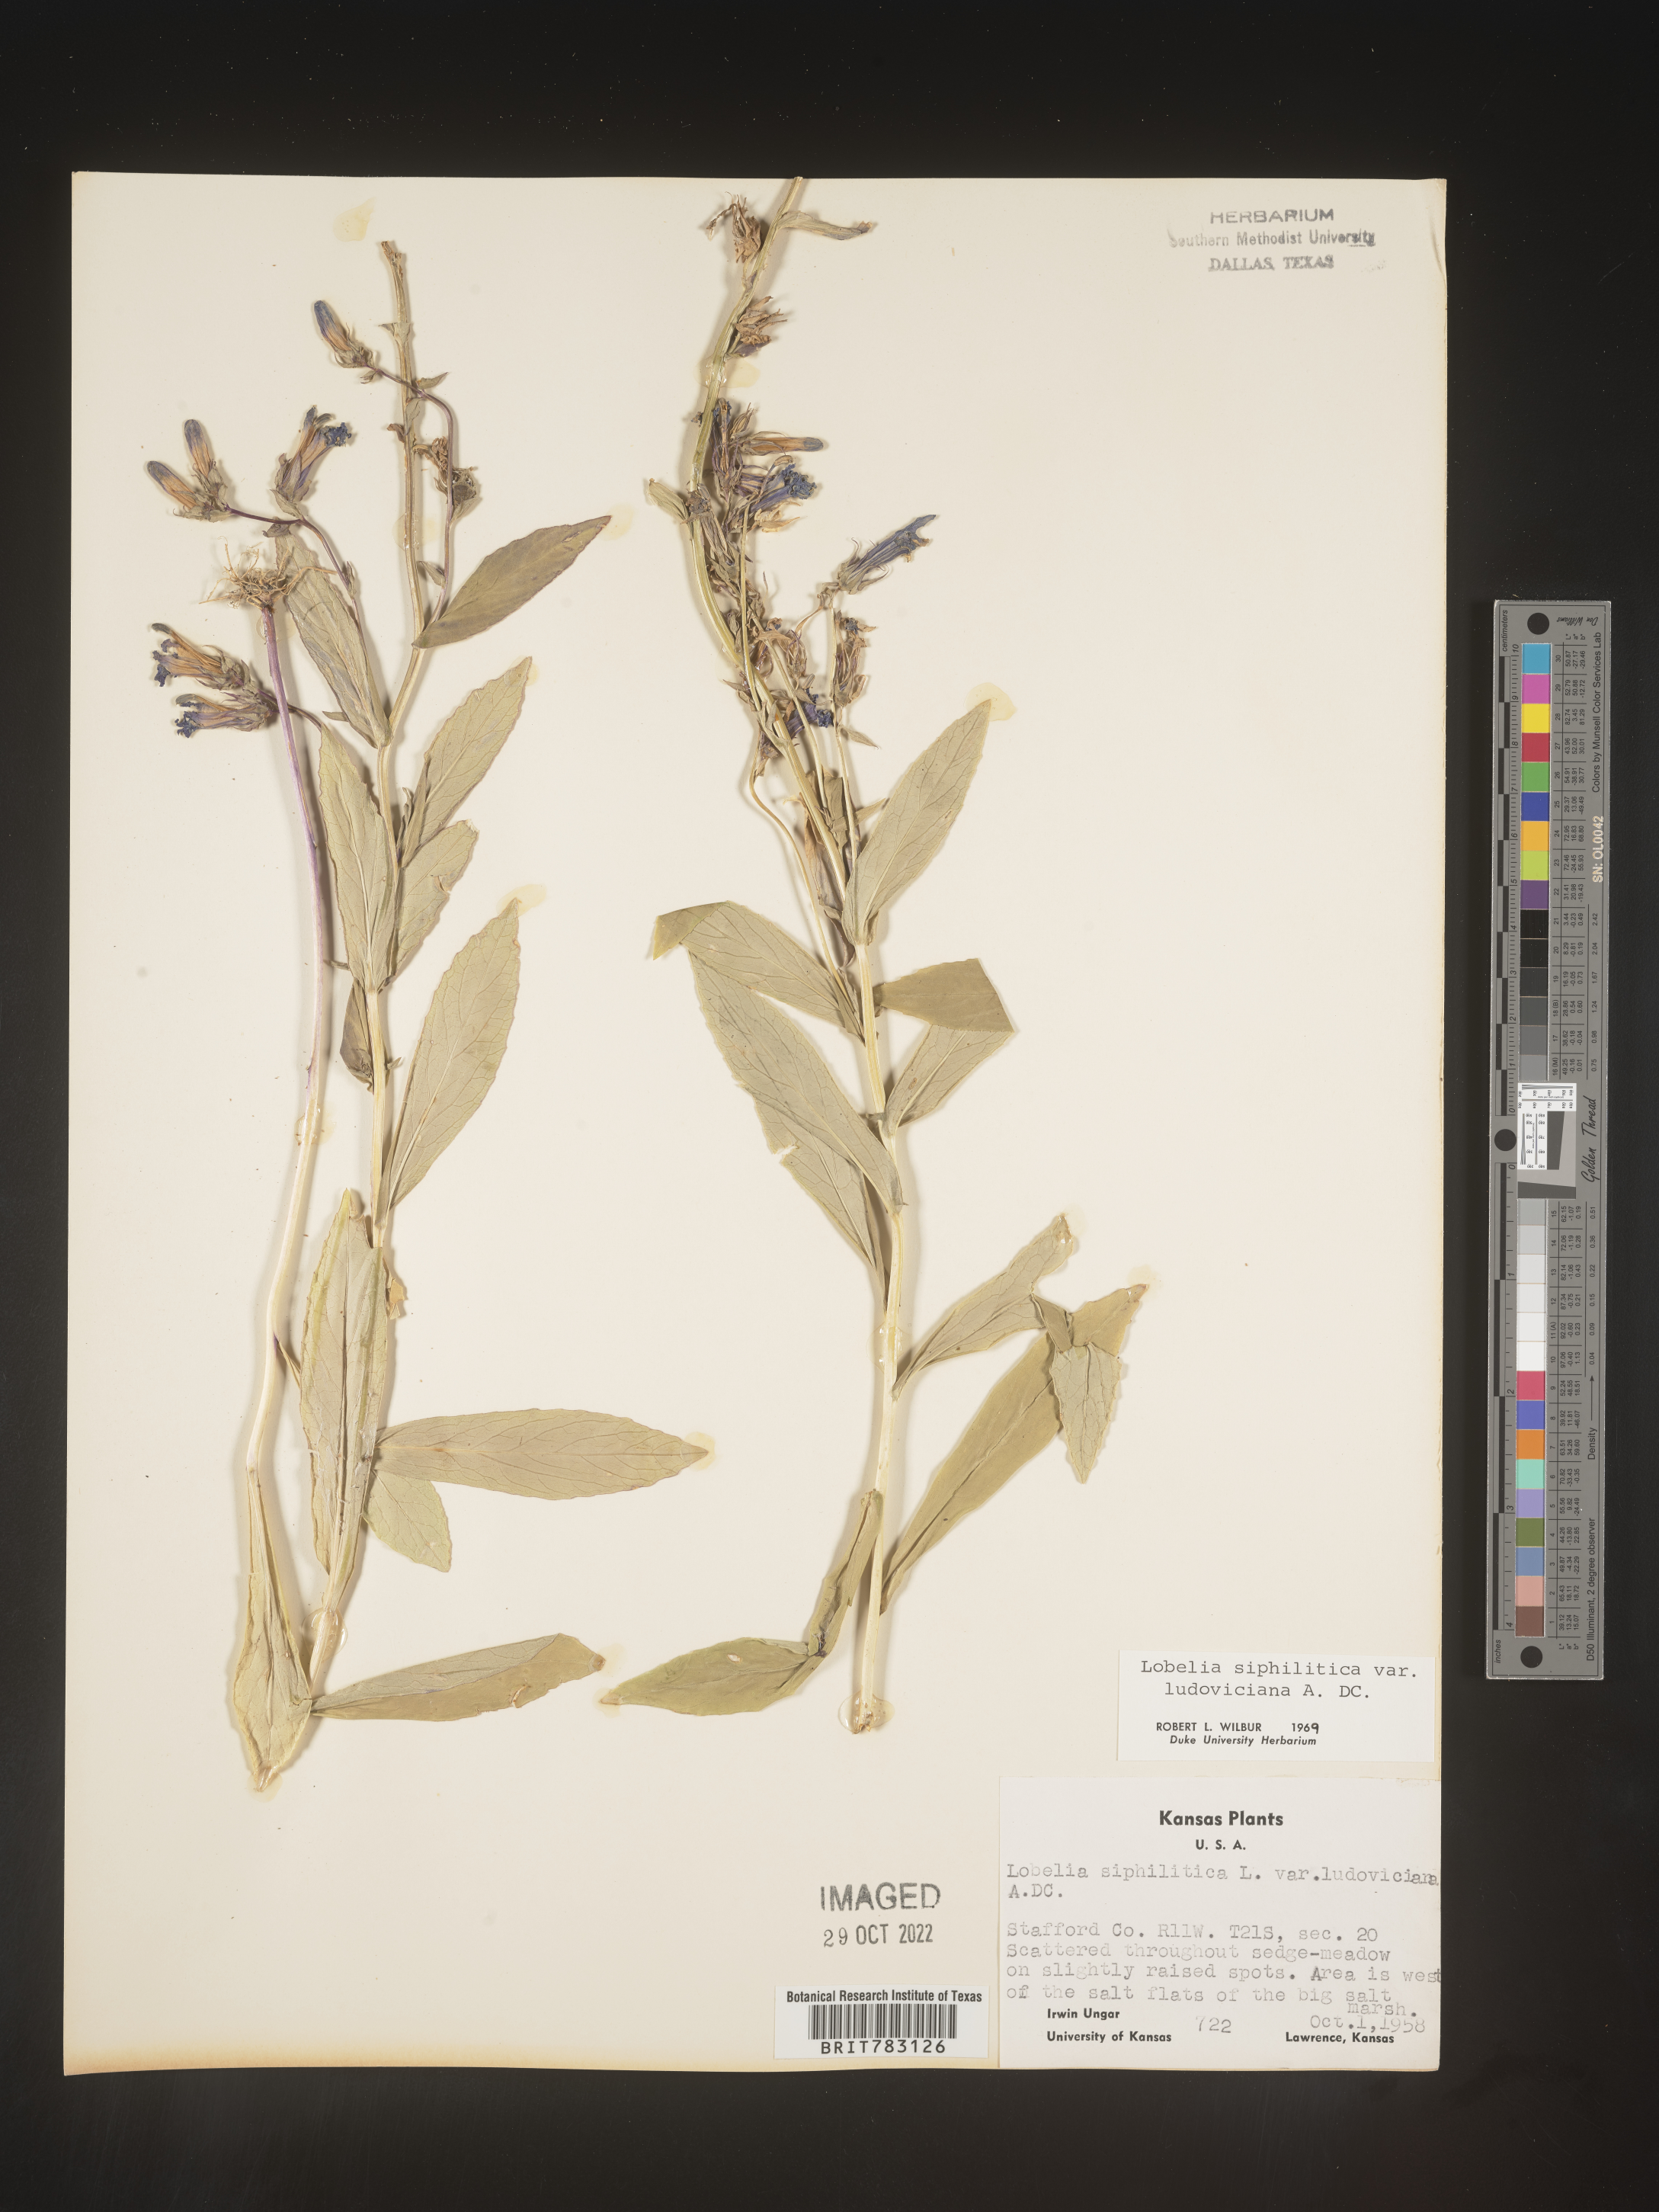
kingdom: Plantae
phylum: Tracheophyta
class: Magnoliopsida
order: Asterales
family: Campanulaceae
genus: Lobelia
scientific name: Lobelia siphilitica
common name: Great lobelia
